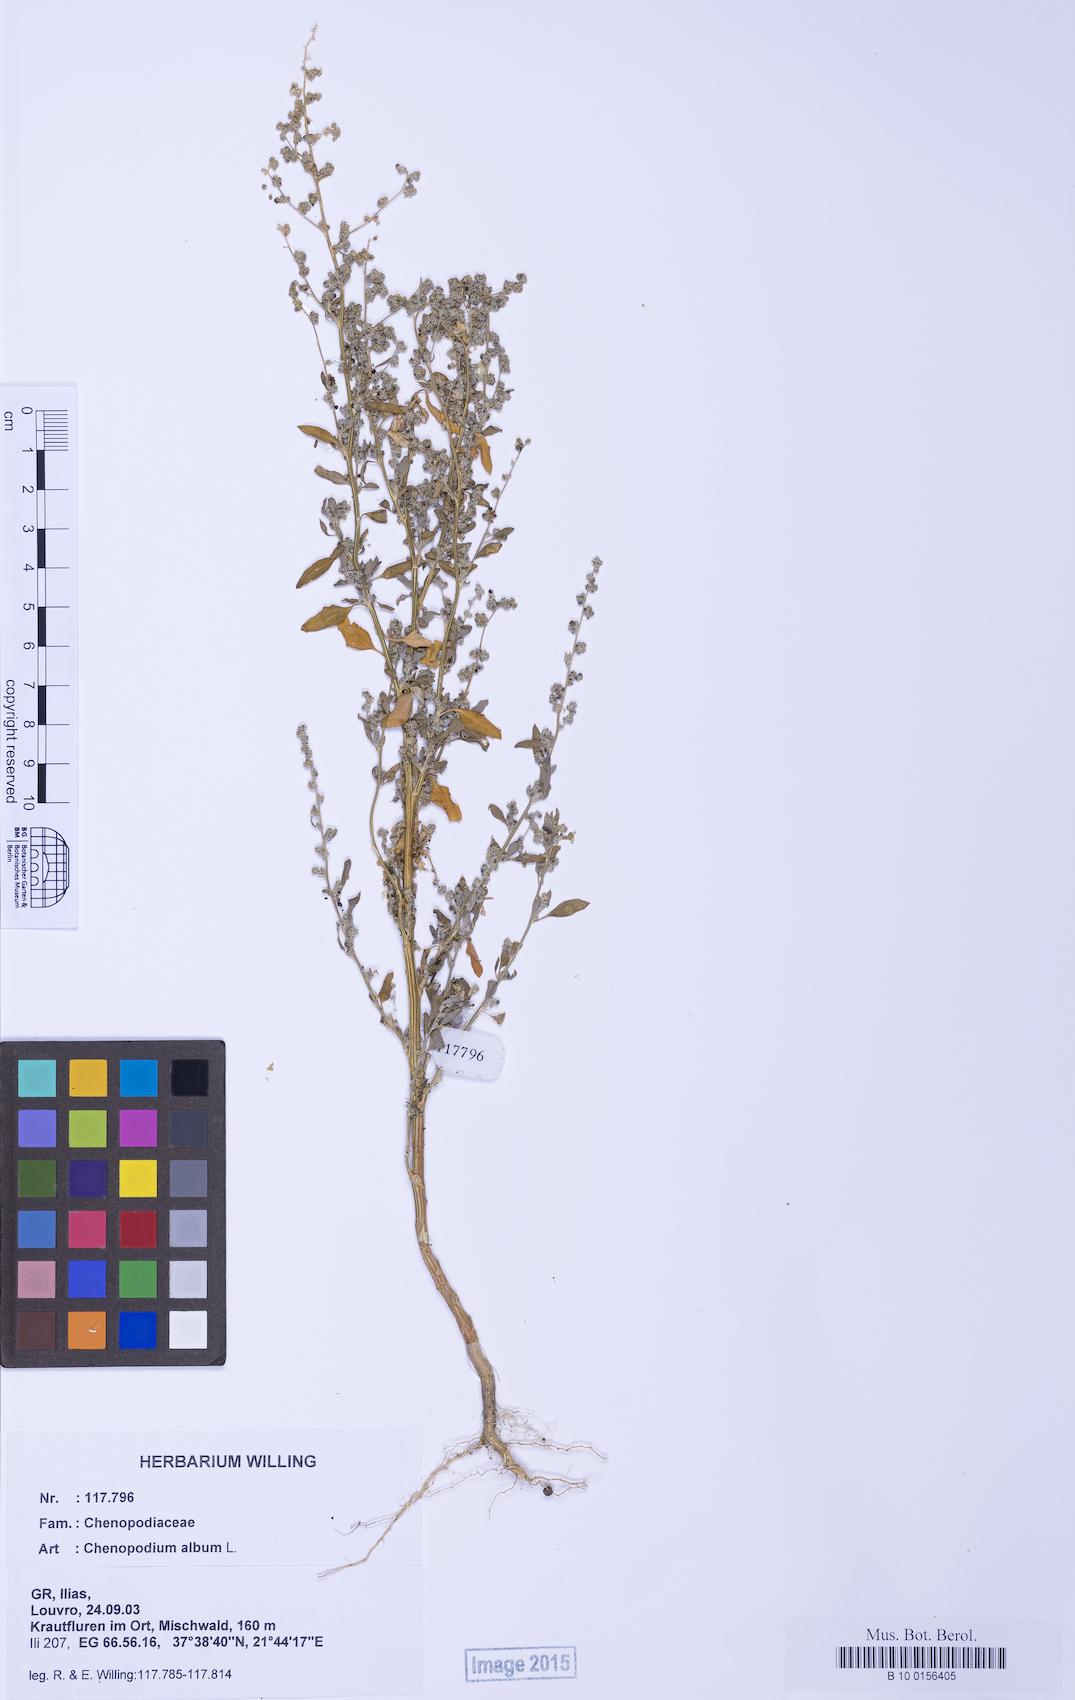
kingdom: Plantae
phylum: Tracheophyta
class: Magnoliopsida
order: Caryophyllales
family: Amaranthaceae
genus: Chenopodium
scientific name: Chenopodium album
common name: Fat-hen
